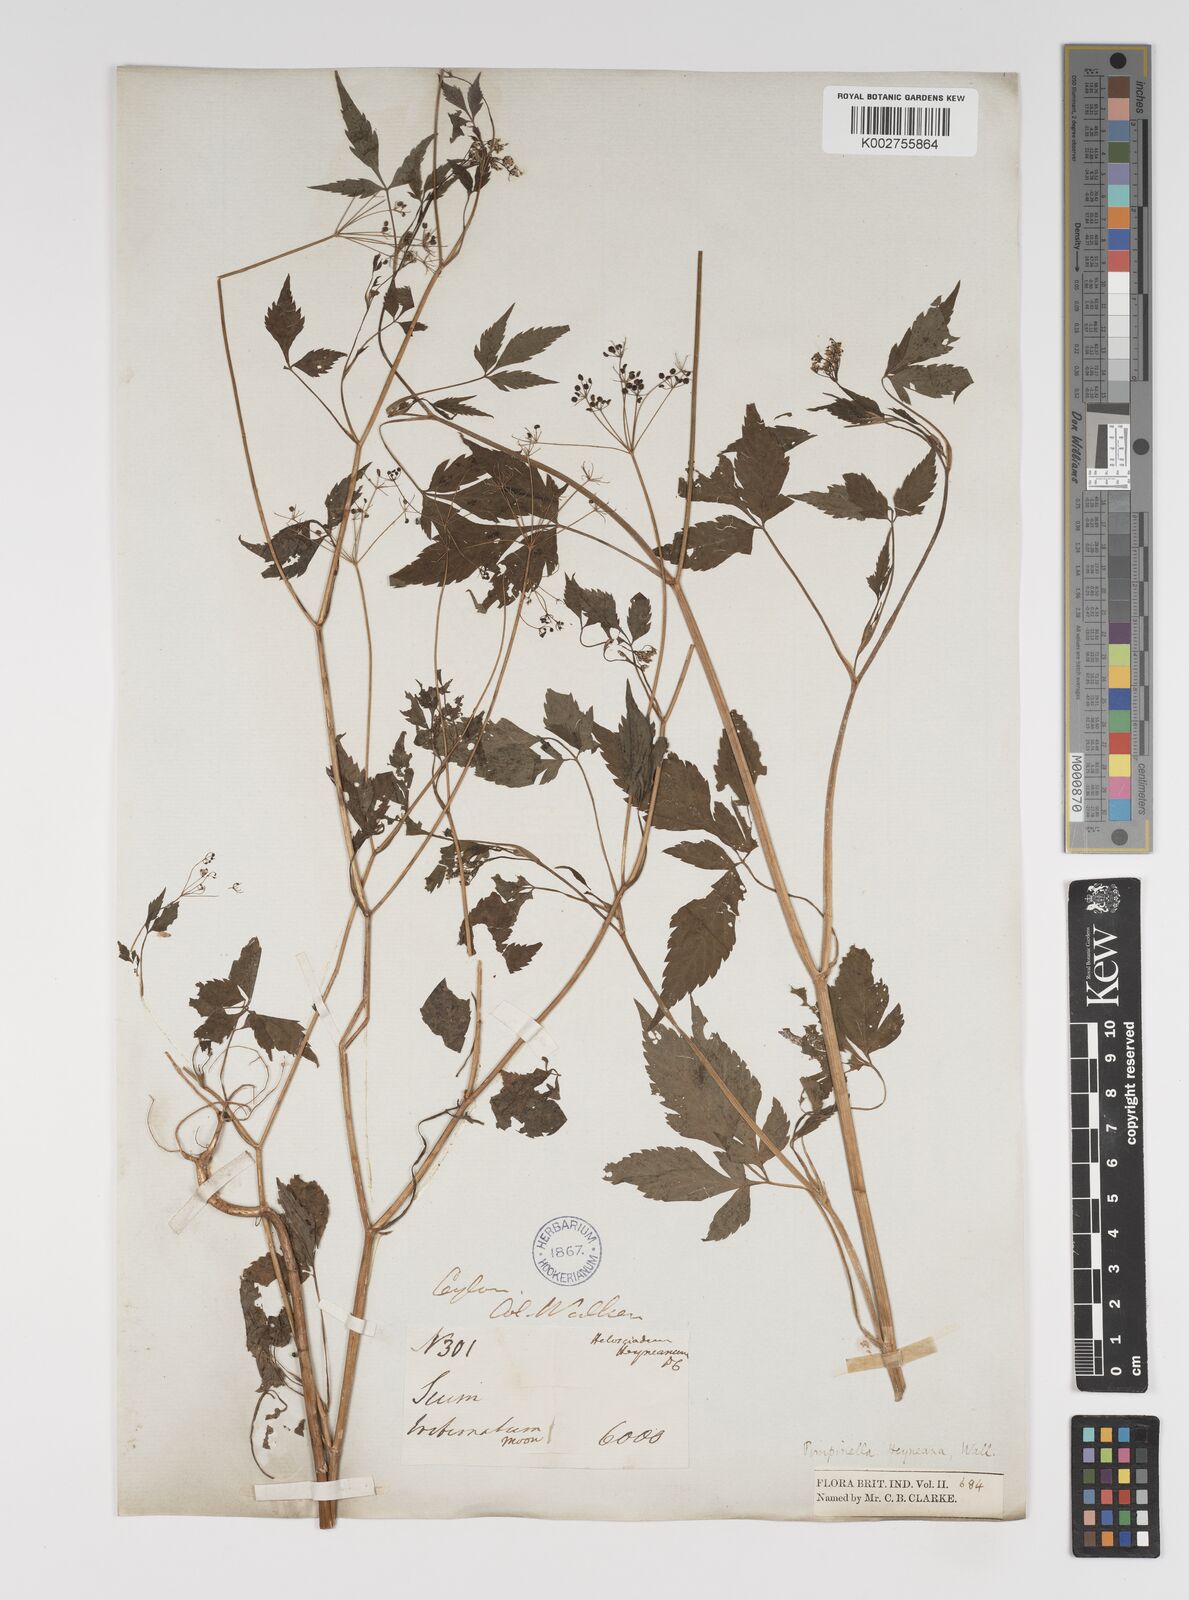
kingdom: Plantae
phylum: Tracheophyta
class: Magnoliopsida
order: Apiales
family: Apiaceae
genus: Pimpinella
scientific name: Pimpinella heyneana
